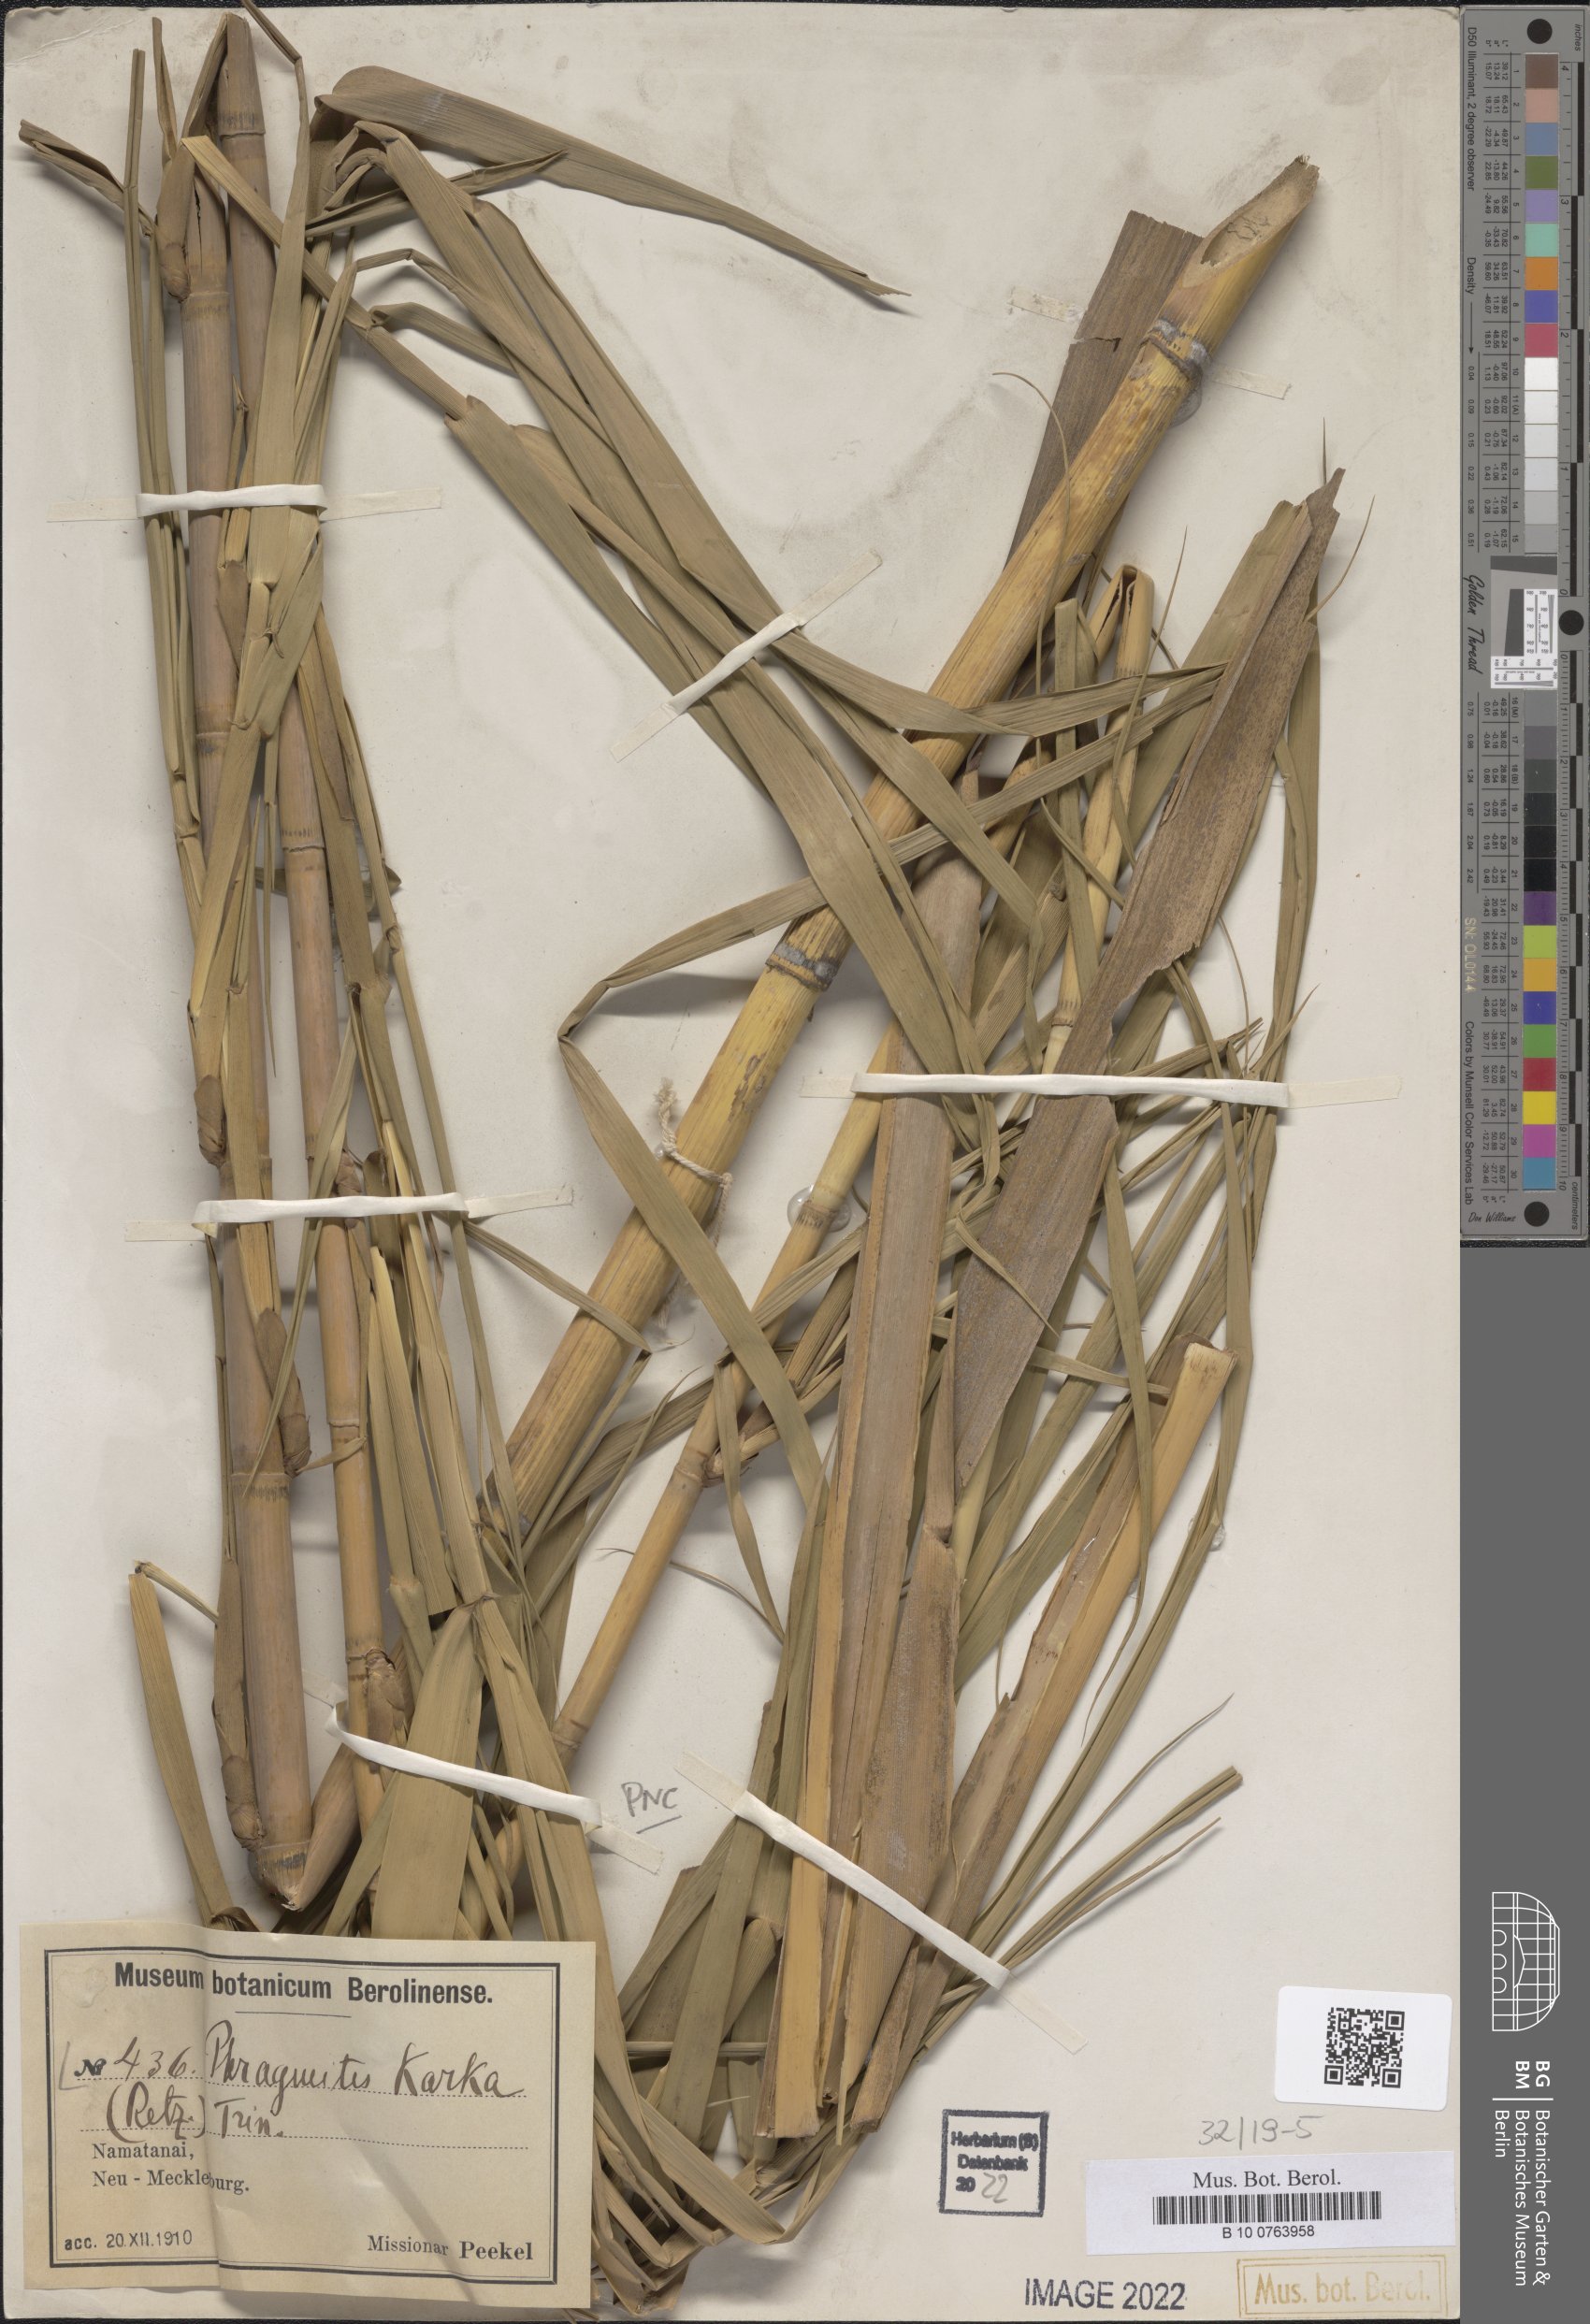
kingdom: Plantae
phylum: Tracheophyta
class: Liliopsida
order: Poales
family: Poaceae
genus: Phragmites
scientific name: Phragmites karka
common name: Tropical reed
